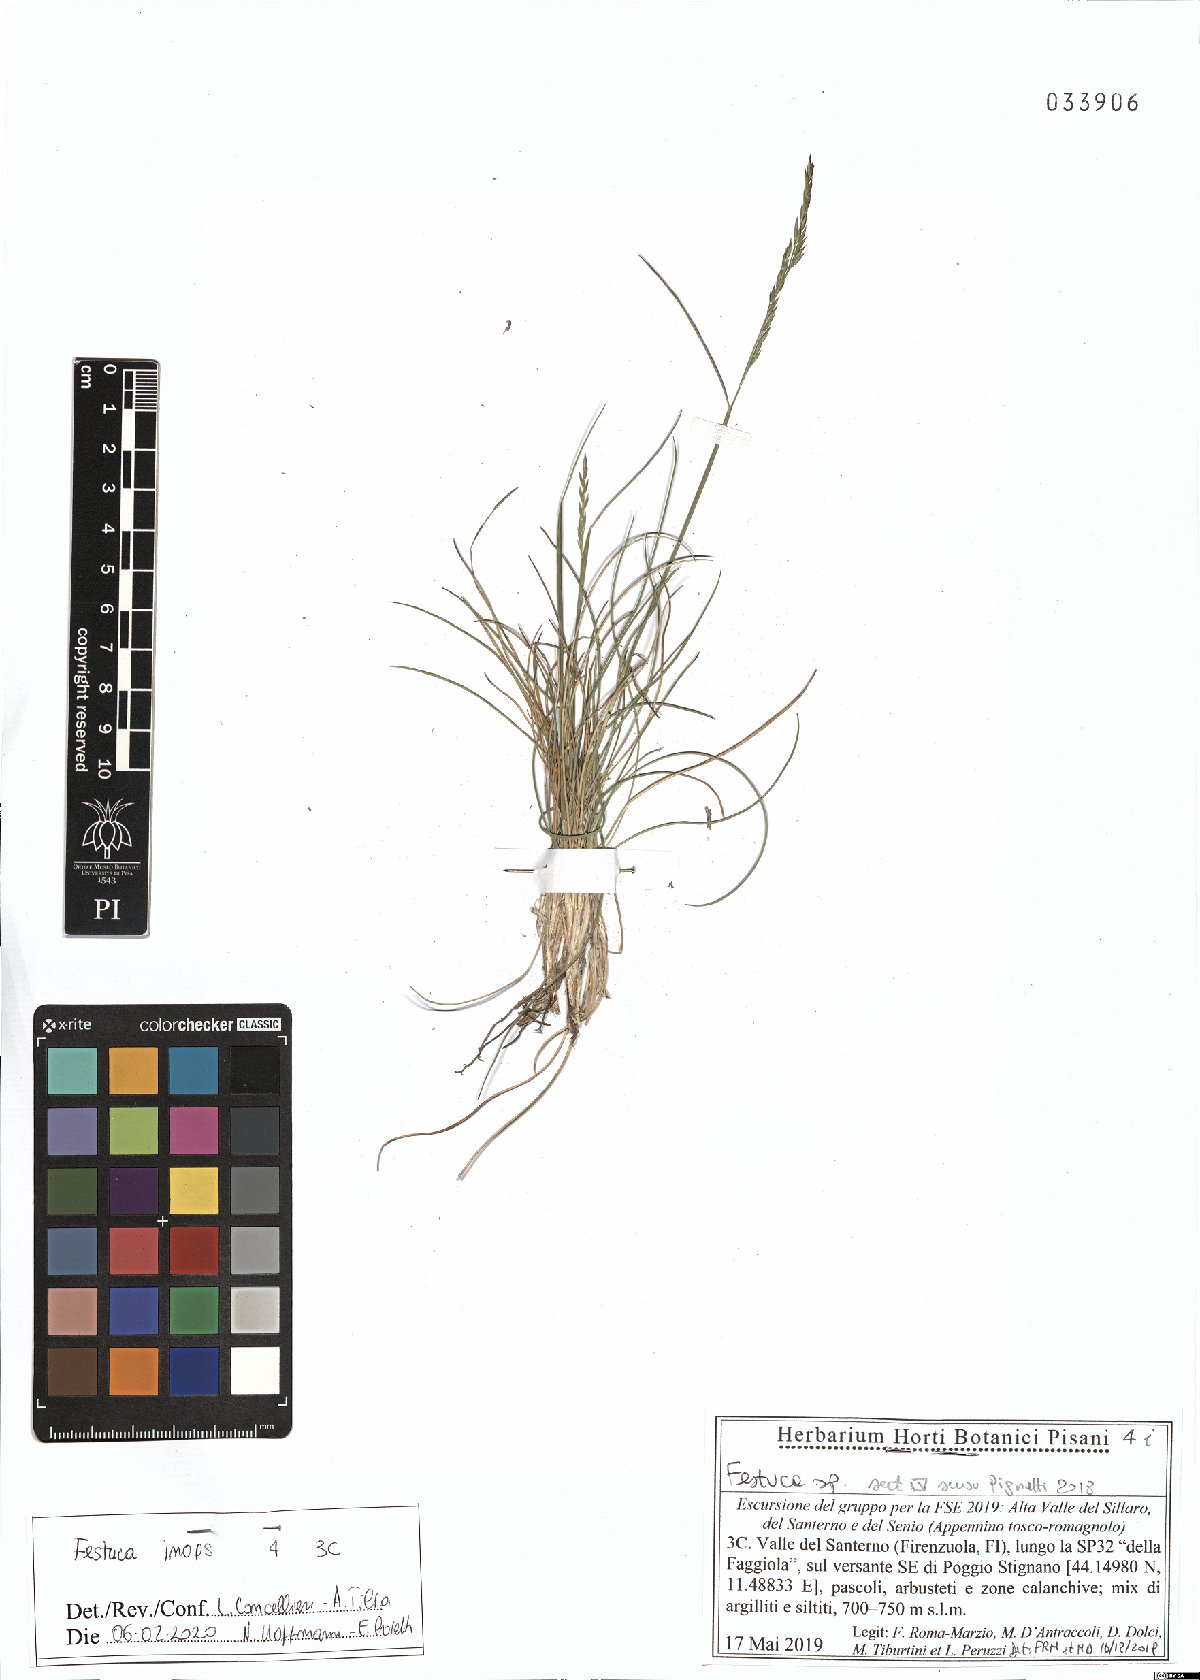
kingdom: Plantae
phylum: Tracheophyta
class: Liliopsida
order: Poales
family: Poaceae
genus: Festuca
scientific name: Festuca inops
